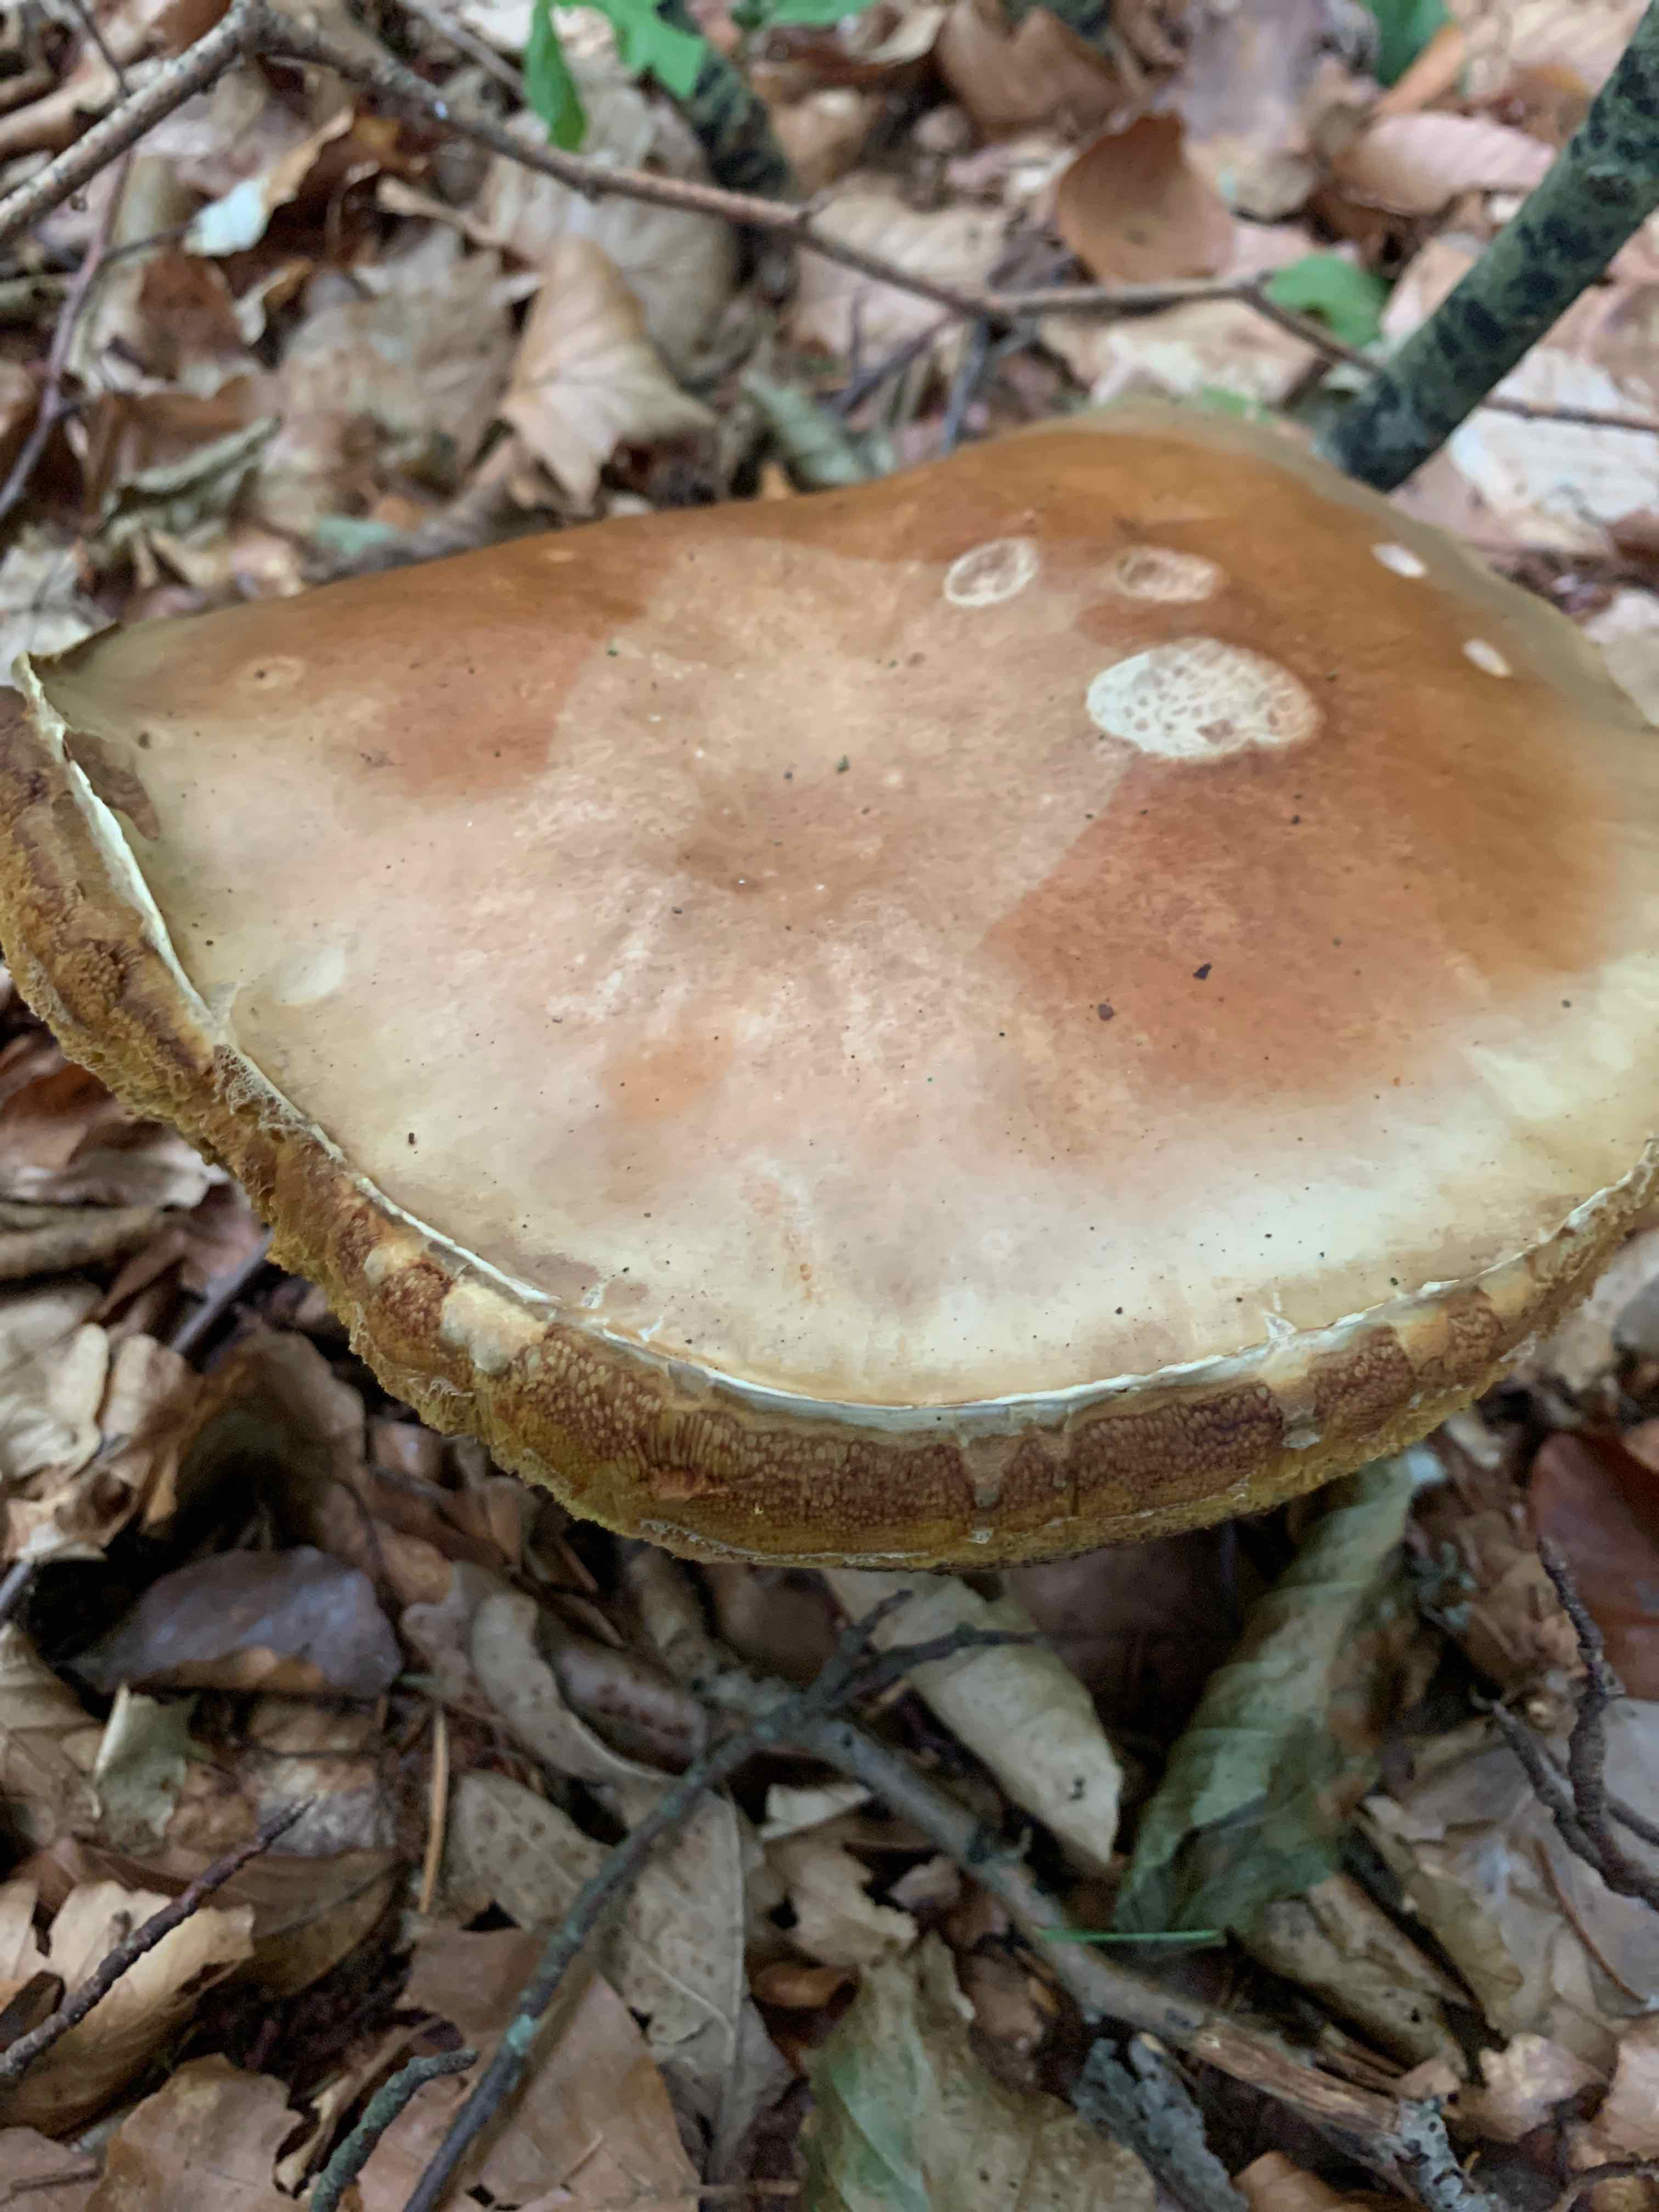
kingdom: Fungi
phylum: Basidiomycota
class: Agaricomycetes
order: Boletales
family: Boletaceae
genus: Boletus
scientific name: Boletus edulis
